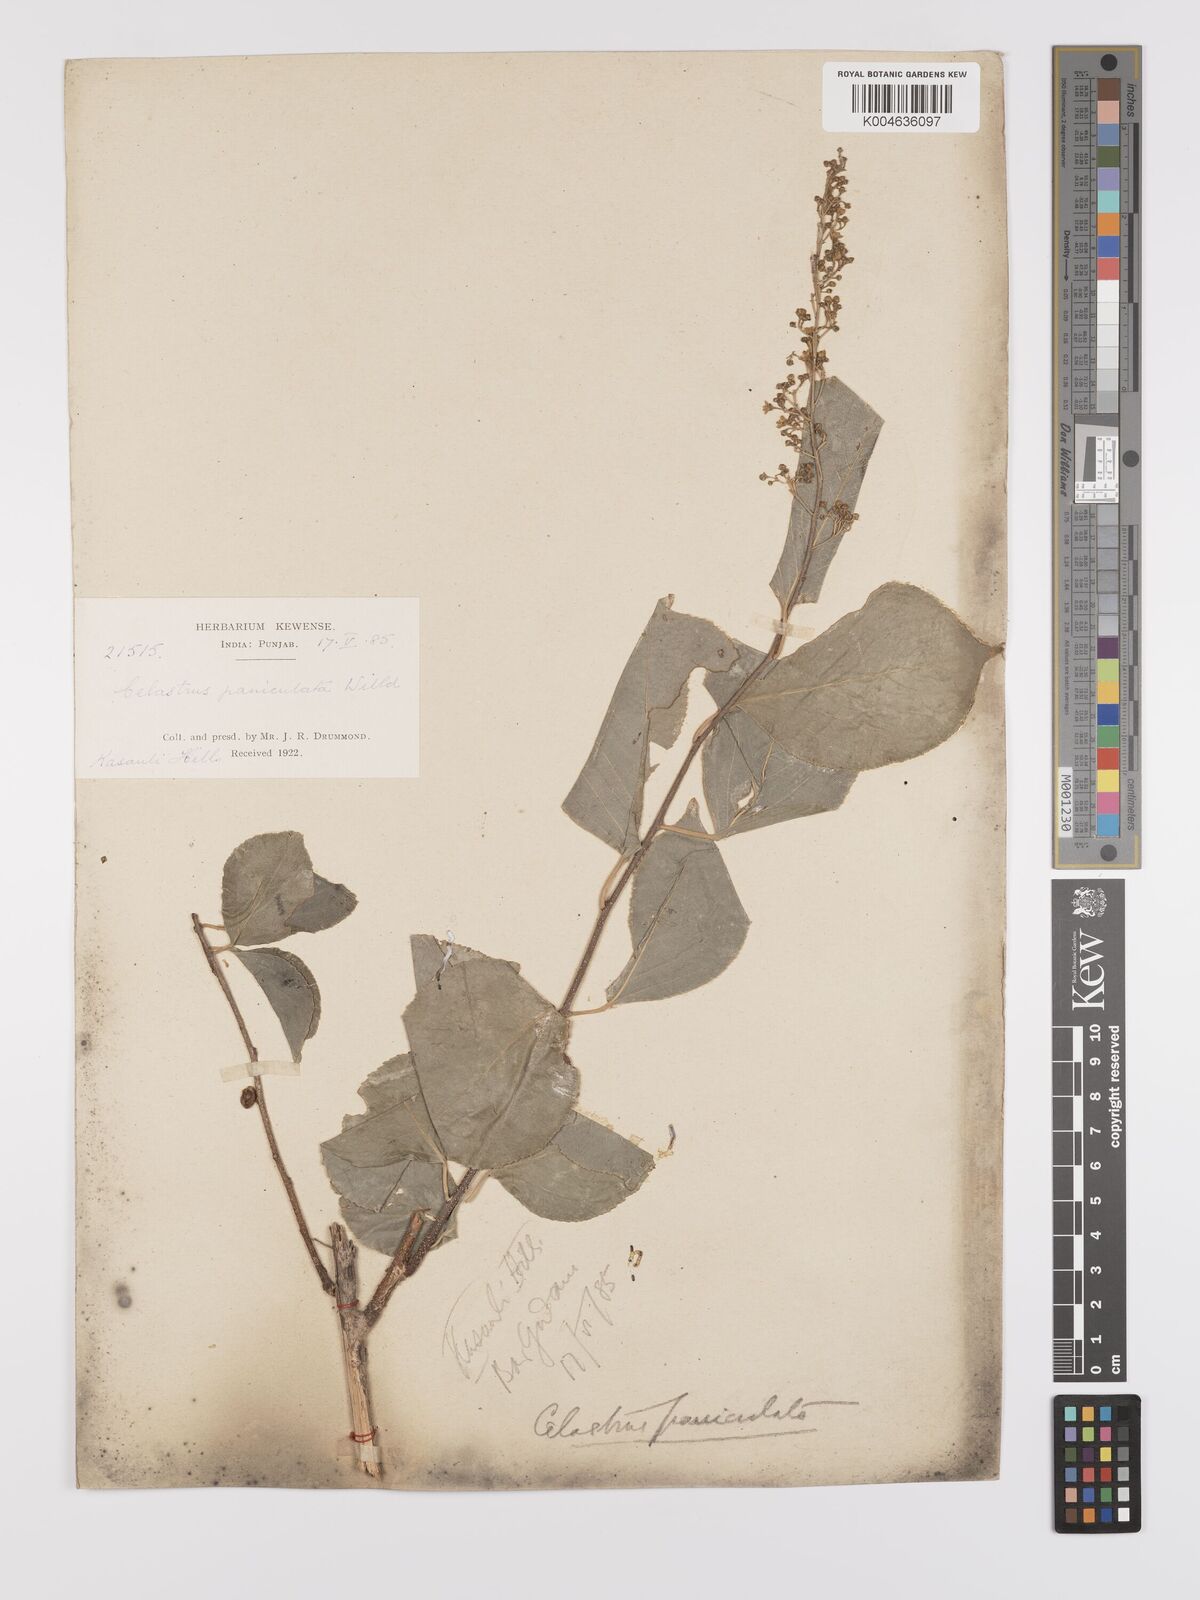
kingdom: Plantae
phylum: Tracheophyta
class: Magnoliopsida
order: Celastrales
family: Celastraceae
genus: Celastrus
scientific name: Celastrus paniculatus
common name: Oriental bittersweet; staff vine
